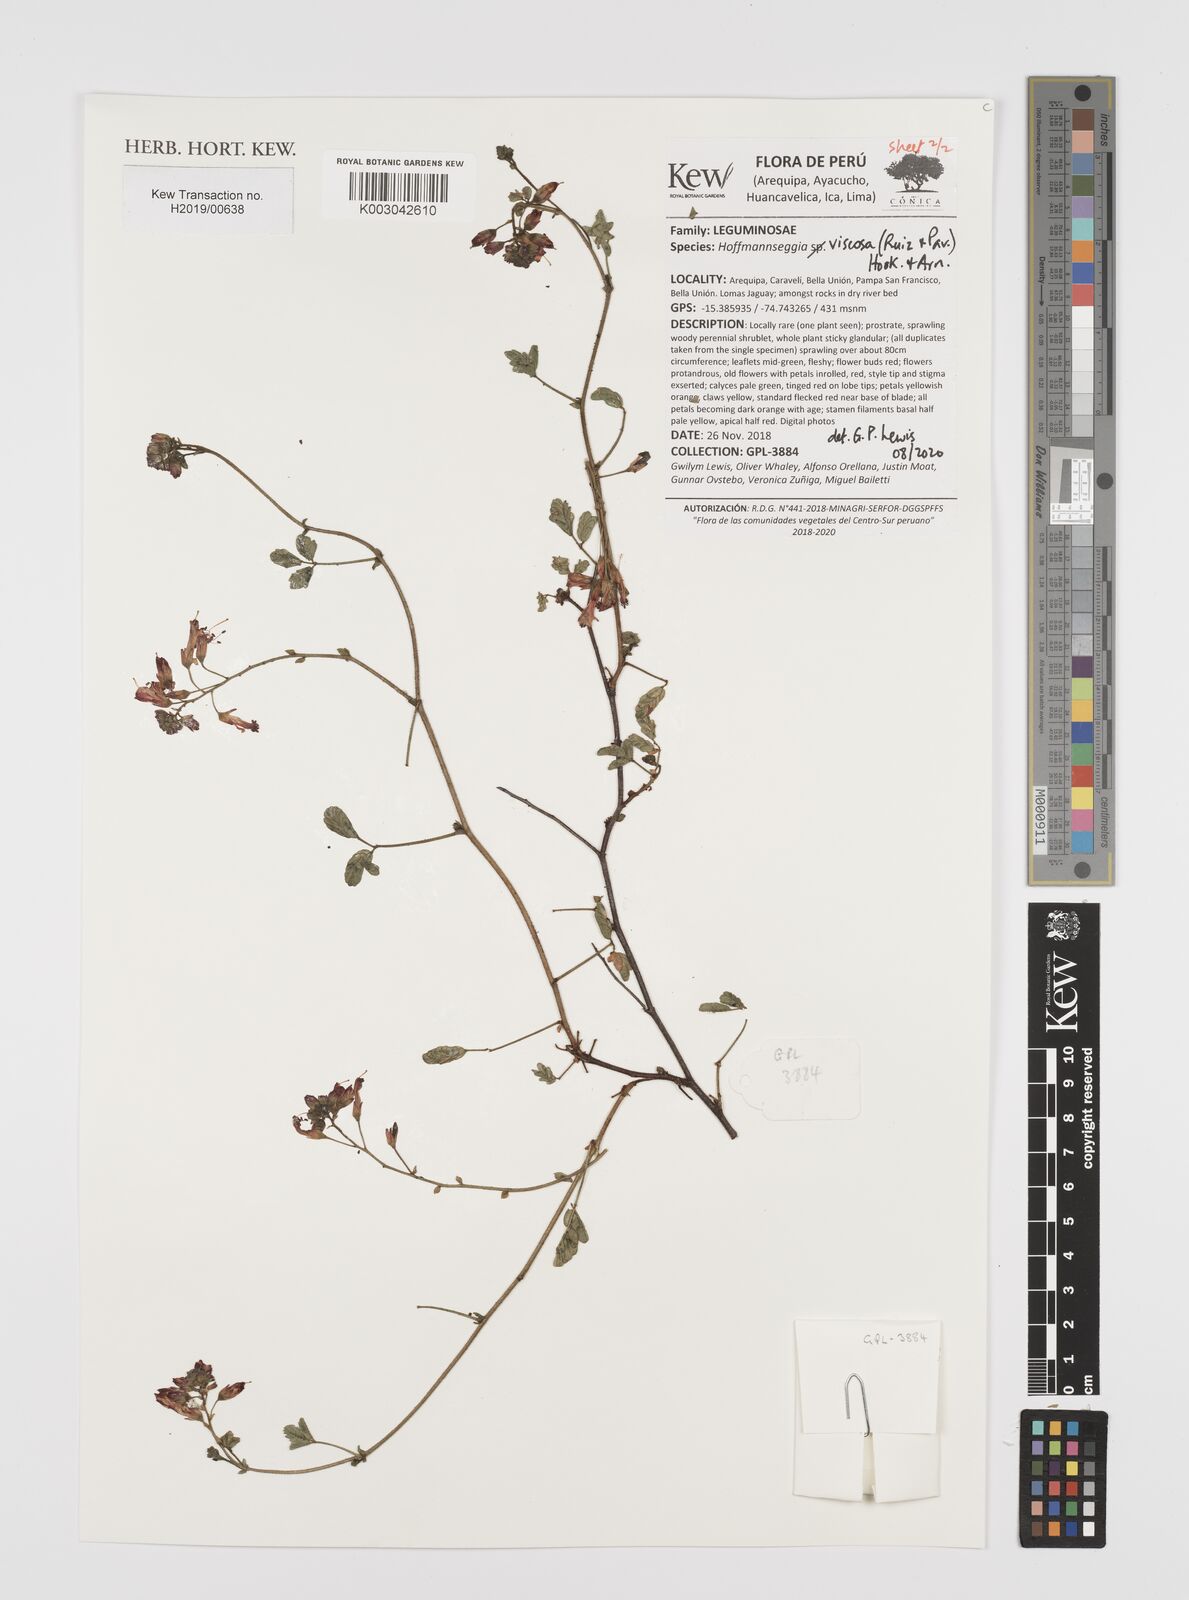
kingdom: Plantae
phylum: Tracheophyta
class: Magnoliopsida
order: Fabales
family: Fabaceae
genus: Hoffmannseggia
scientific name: Hoffmannseggia viscosa
